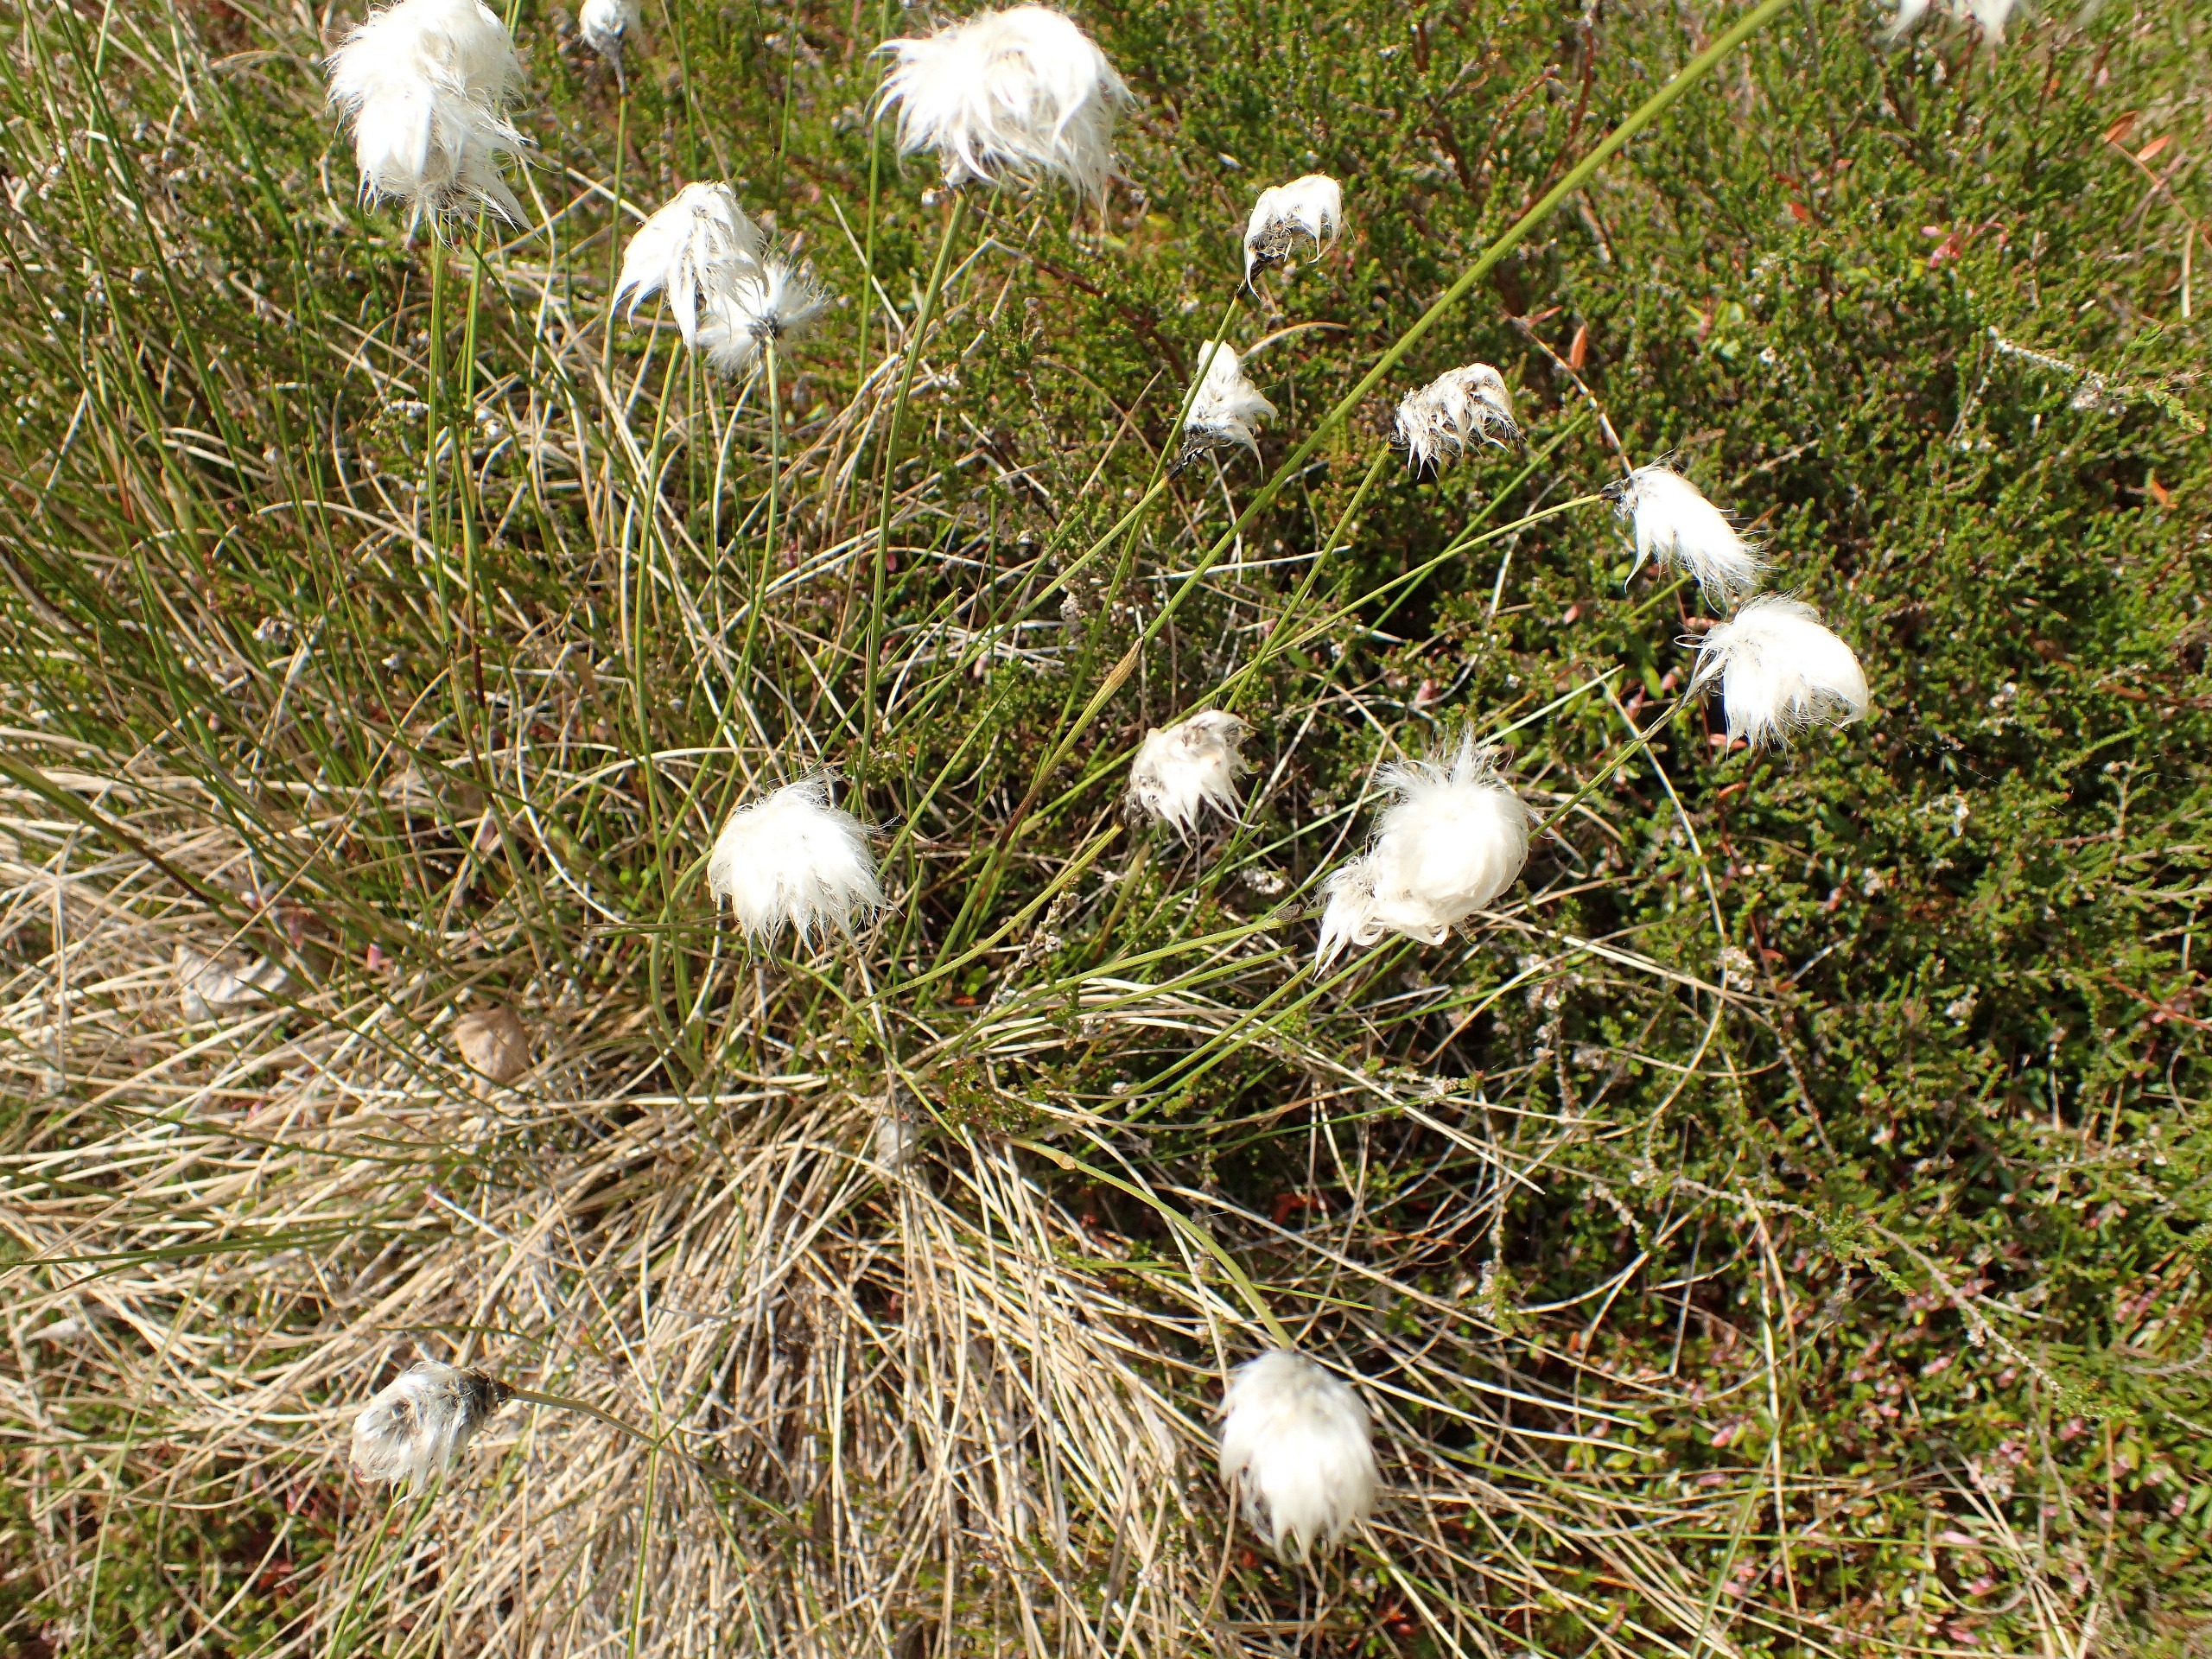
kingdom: Plantae
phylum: Tracheophyta
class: Liliopsida
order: Poales
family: Cyperaceae
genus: Eriophorum
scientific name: Eriophorum vaginatum
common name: Tue-kæruld
